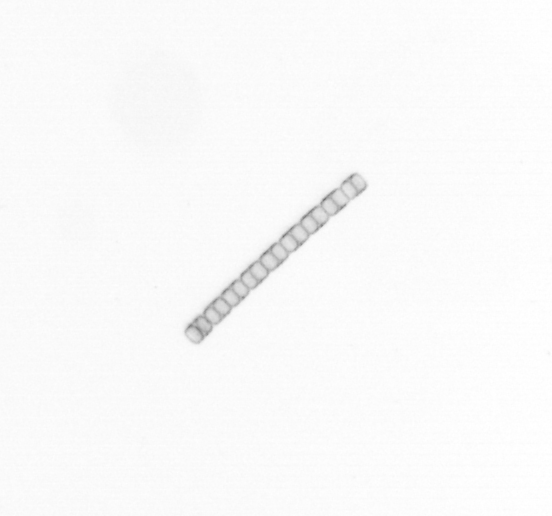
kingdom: Chromista
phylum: Ochrophyta
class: Bacillariophyceae
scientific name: Bacillariophyceae
